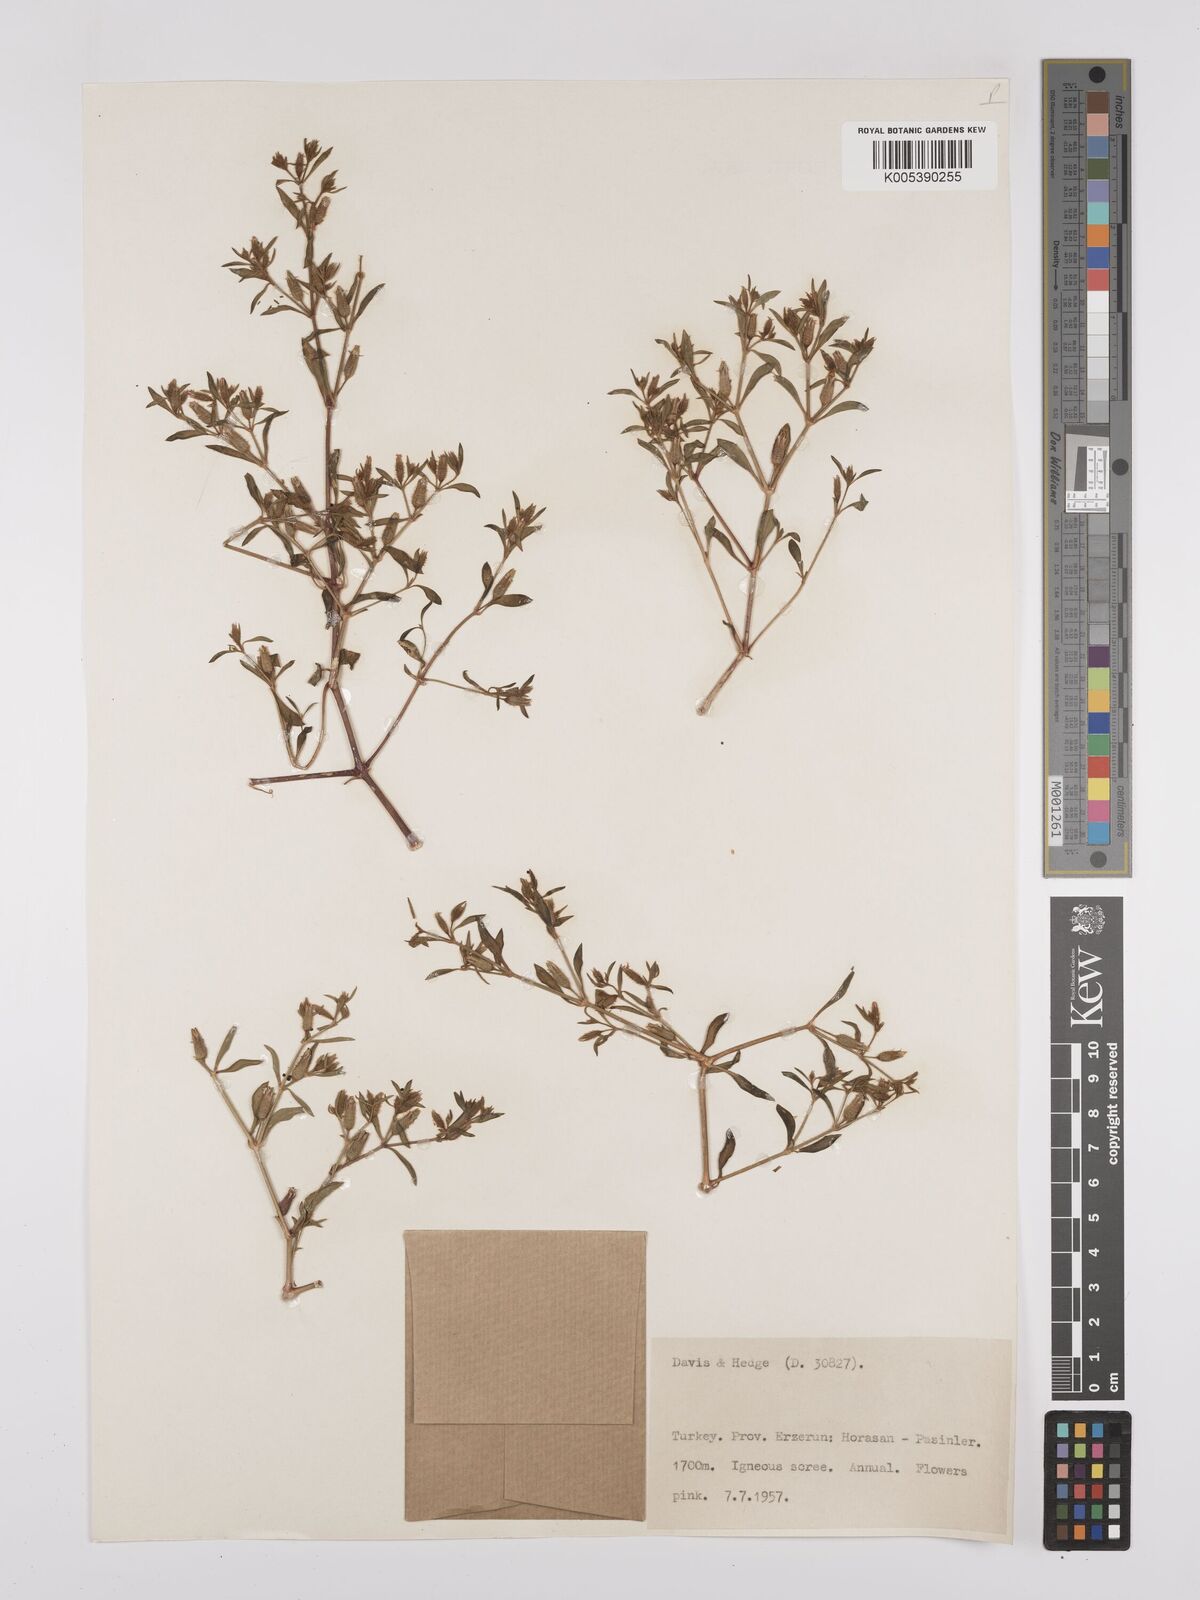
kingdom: Plantae
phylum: Tracheophyta
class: Magnoliopsida
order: Caryophyllales
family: Caryophyllaceae
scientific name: Caryophyllaceae
